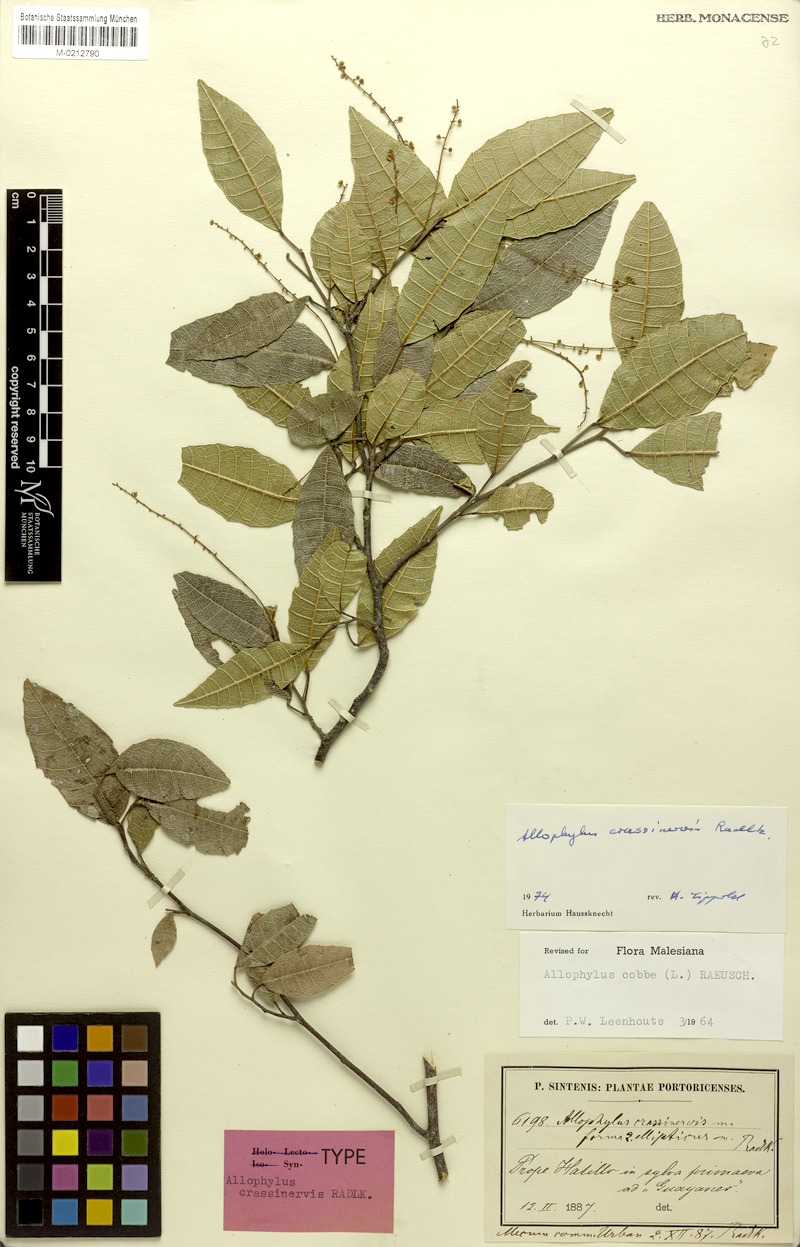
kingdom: Plantae
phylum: Tracheophyta
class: Magnoliopsida
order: Sapindales
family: Sapindaceae
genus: Allophylus
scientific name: Allophylus crassinervis
